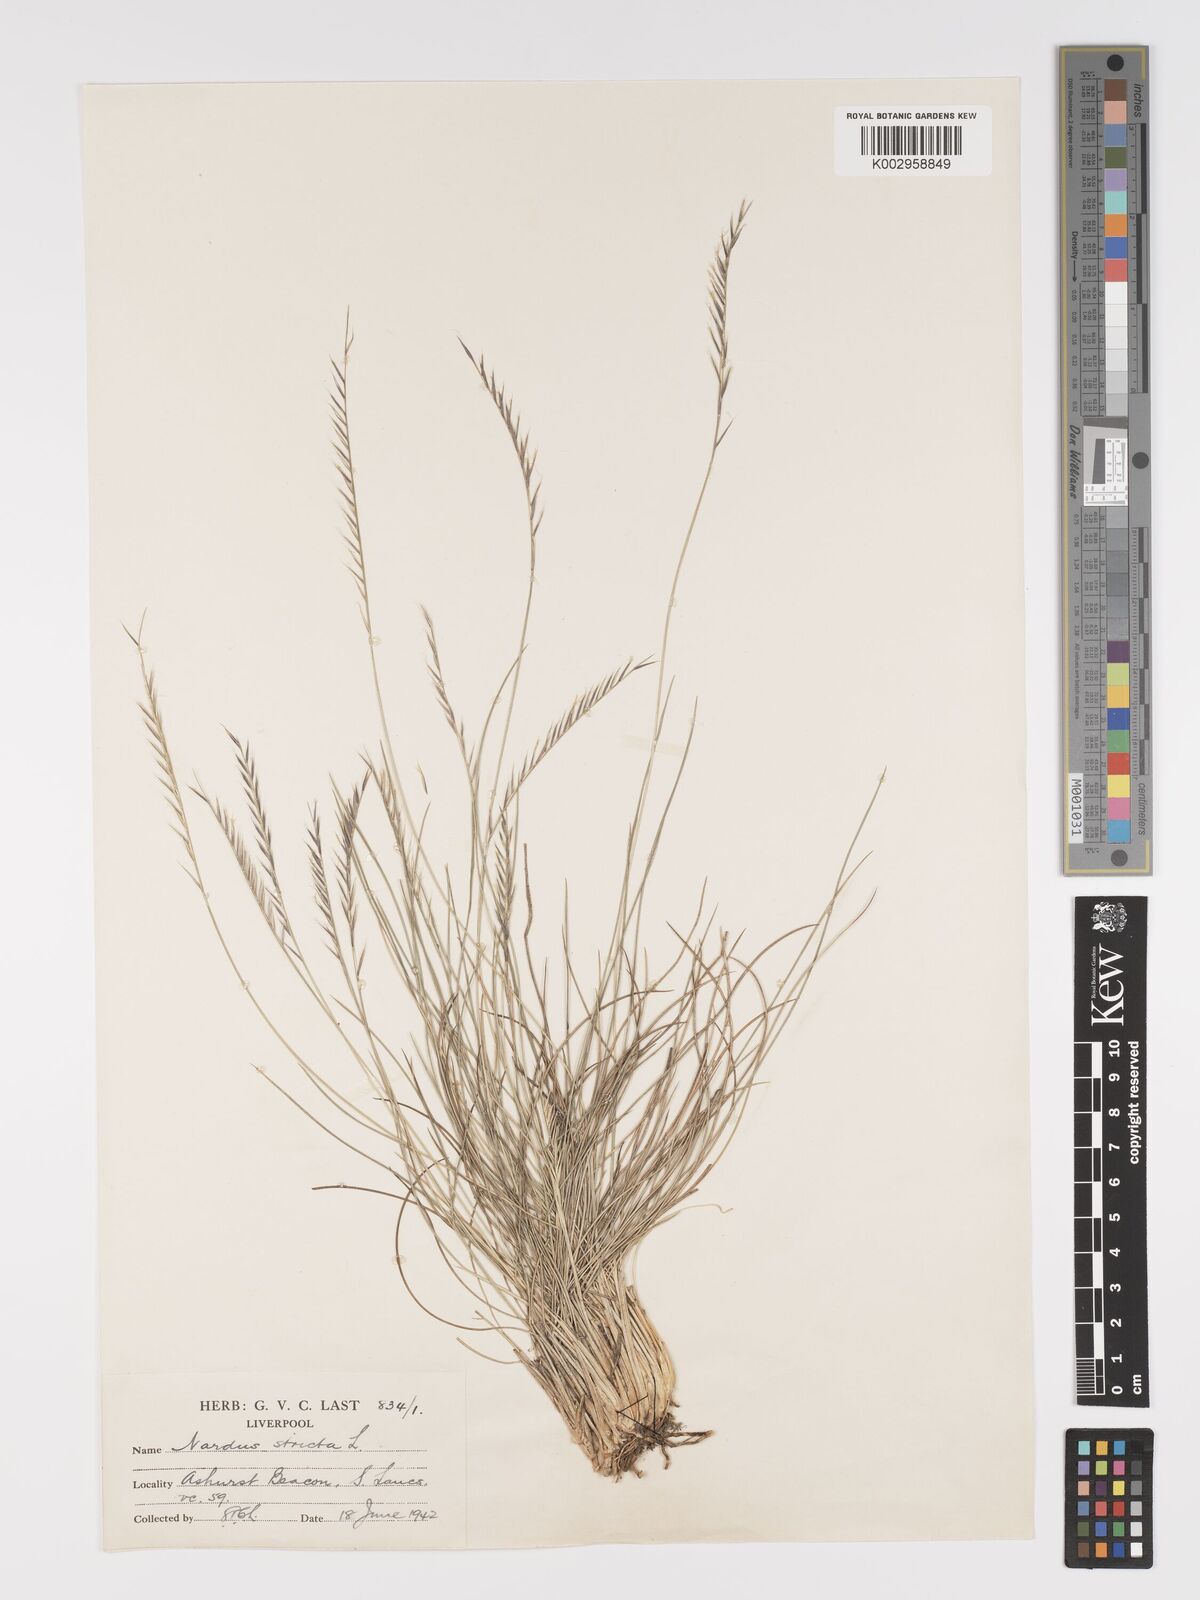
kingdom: Plantae
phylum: Tracheophyta
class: Liliopsida
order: Poales
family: Poaceae
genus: Nardus
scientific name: Nardus stricta
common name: Mat-grass
